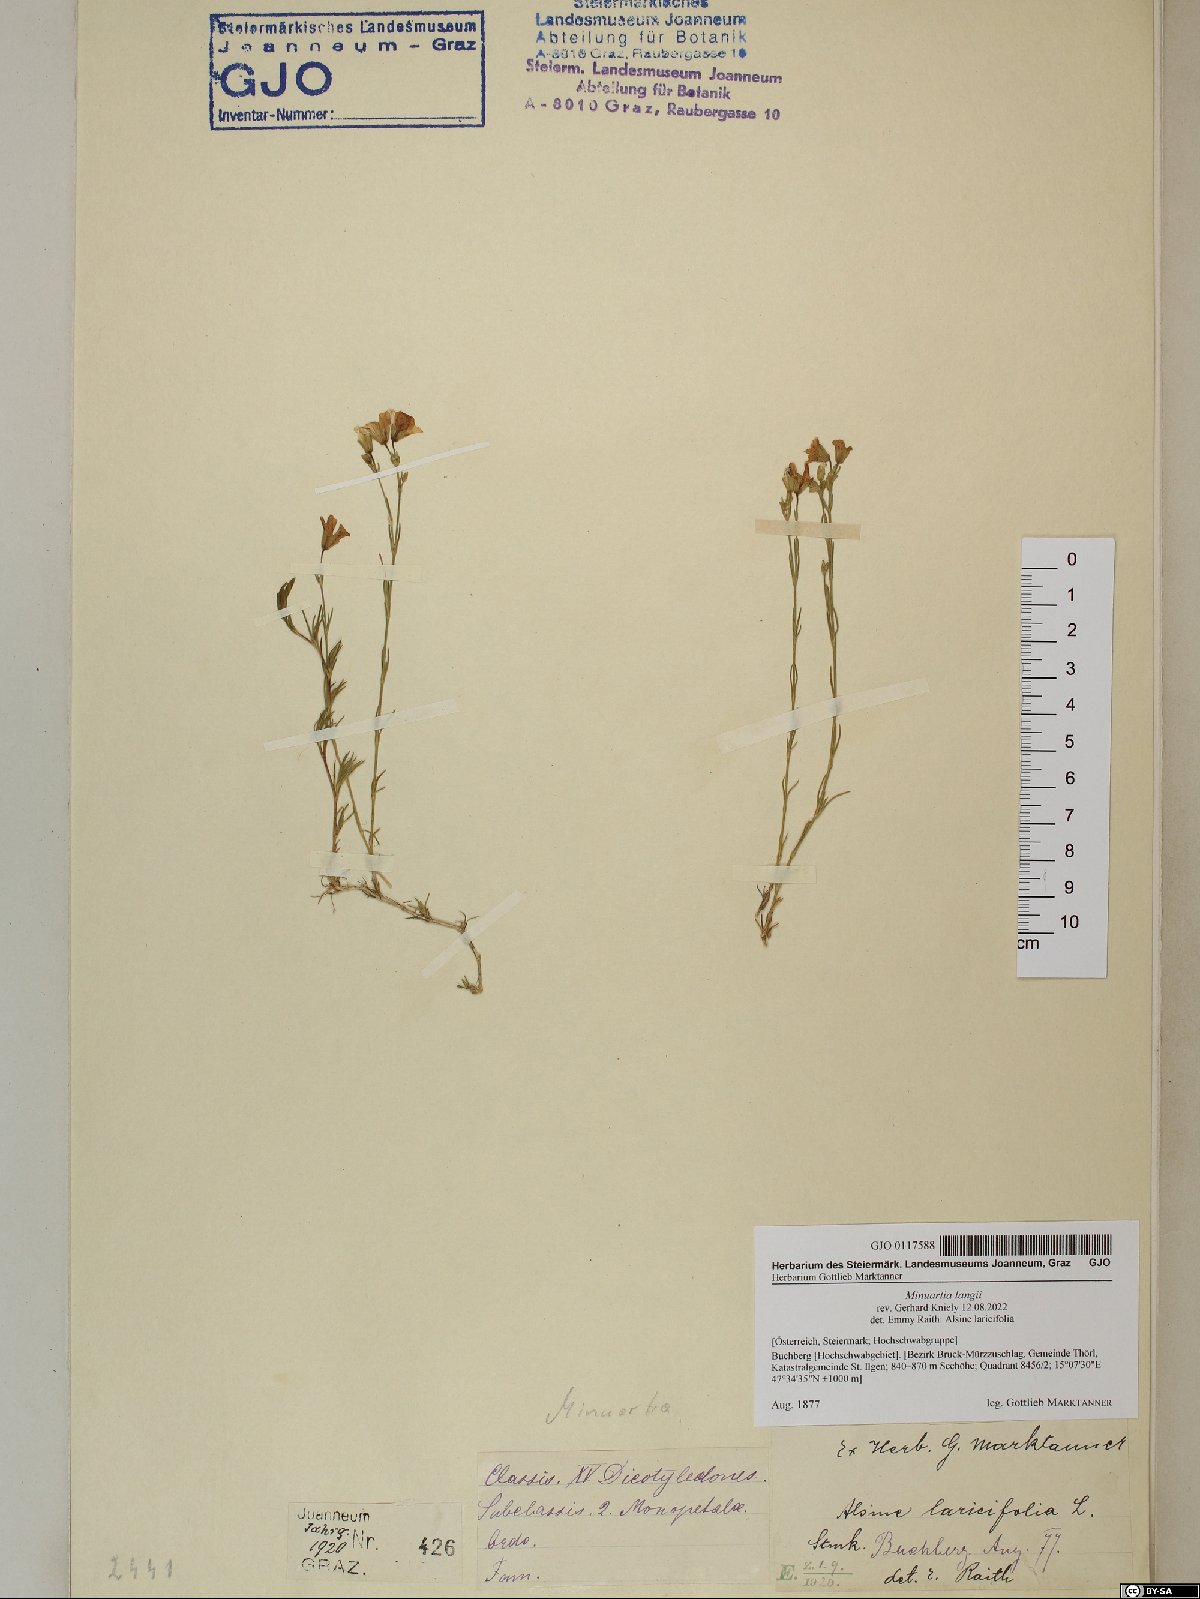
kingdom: Plantae
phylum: Tracheophyta
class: Magnoliopsida
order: Caryophyllales
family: Caryophyllaceae
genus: Cherleria
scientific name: Cherleria langii
